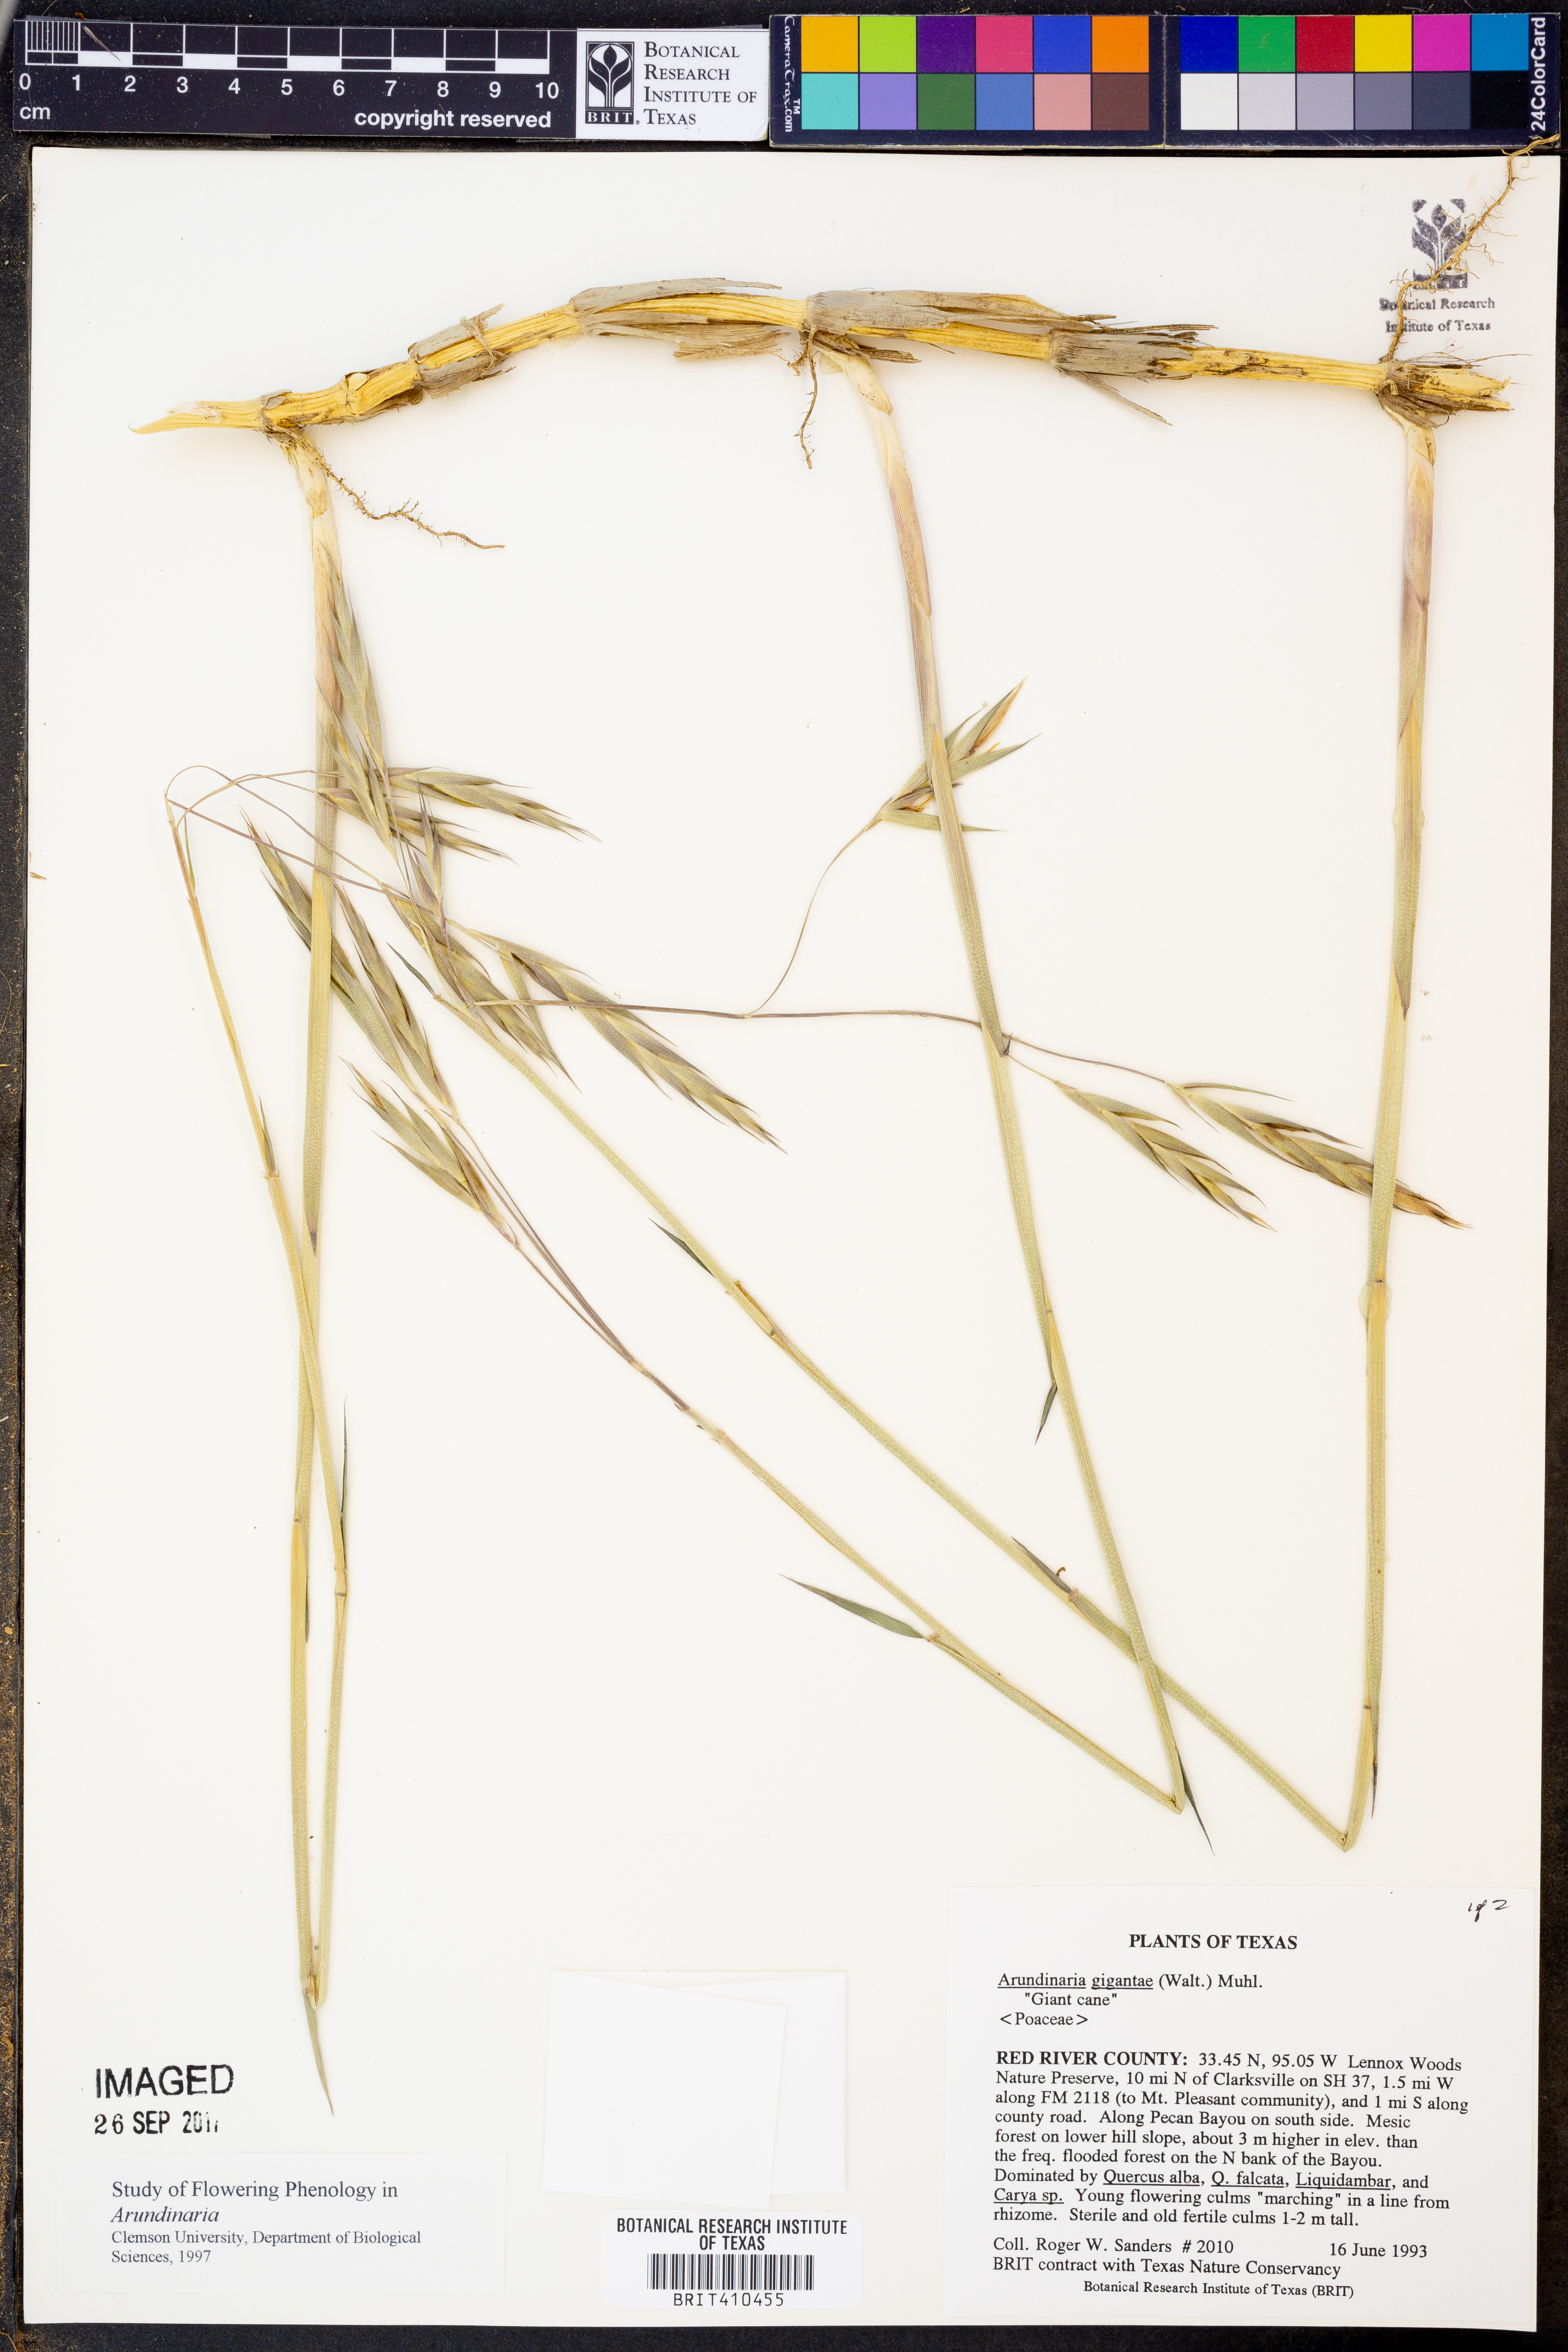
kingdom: Plantae
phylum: Tracheophyta
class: Liliopsida
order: Poales
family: Poaceae
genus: Arundinaria
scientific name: Arundinaria gigantea
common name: Giant cane
